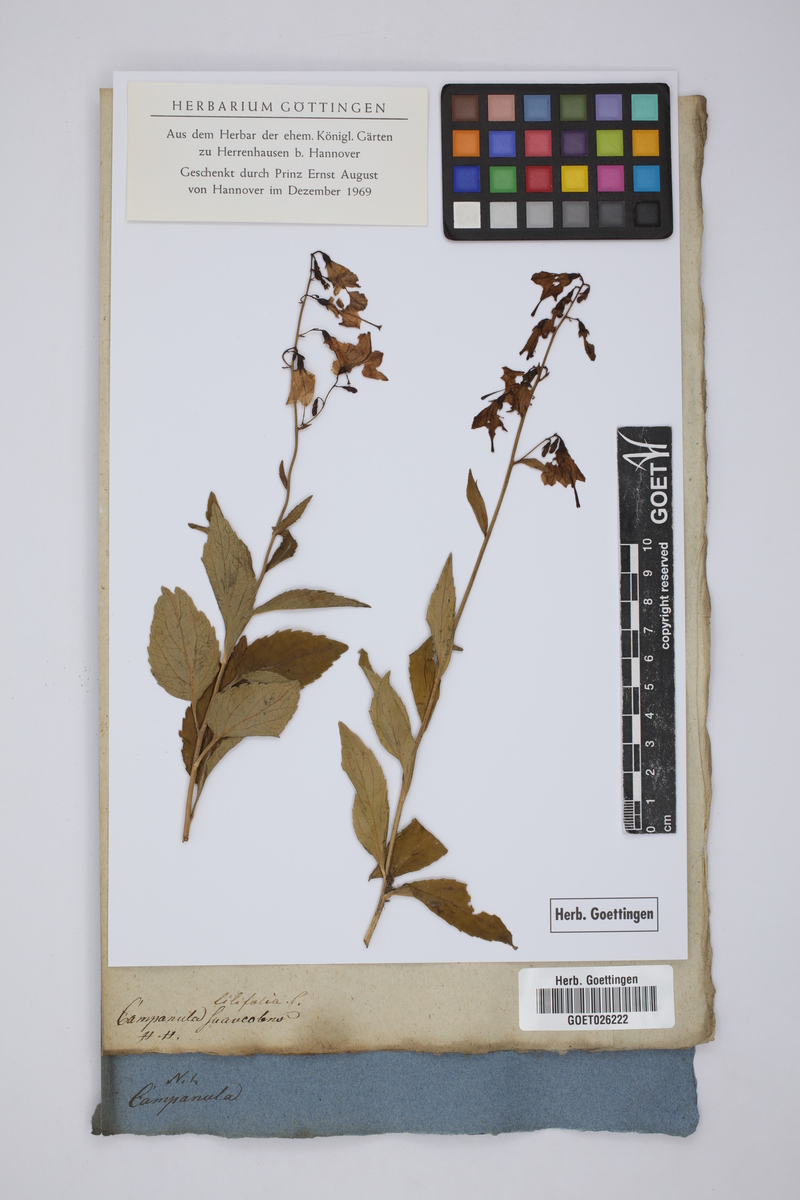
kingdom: Plantae
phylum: Tracheophyta
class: Magnoliopsida
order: Asterales
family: Campanulaceae
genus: Adenophora
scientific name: Adenophora liliifolia
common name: Lilyleaf ladybells
